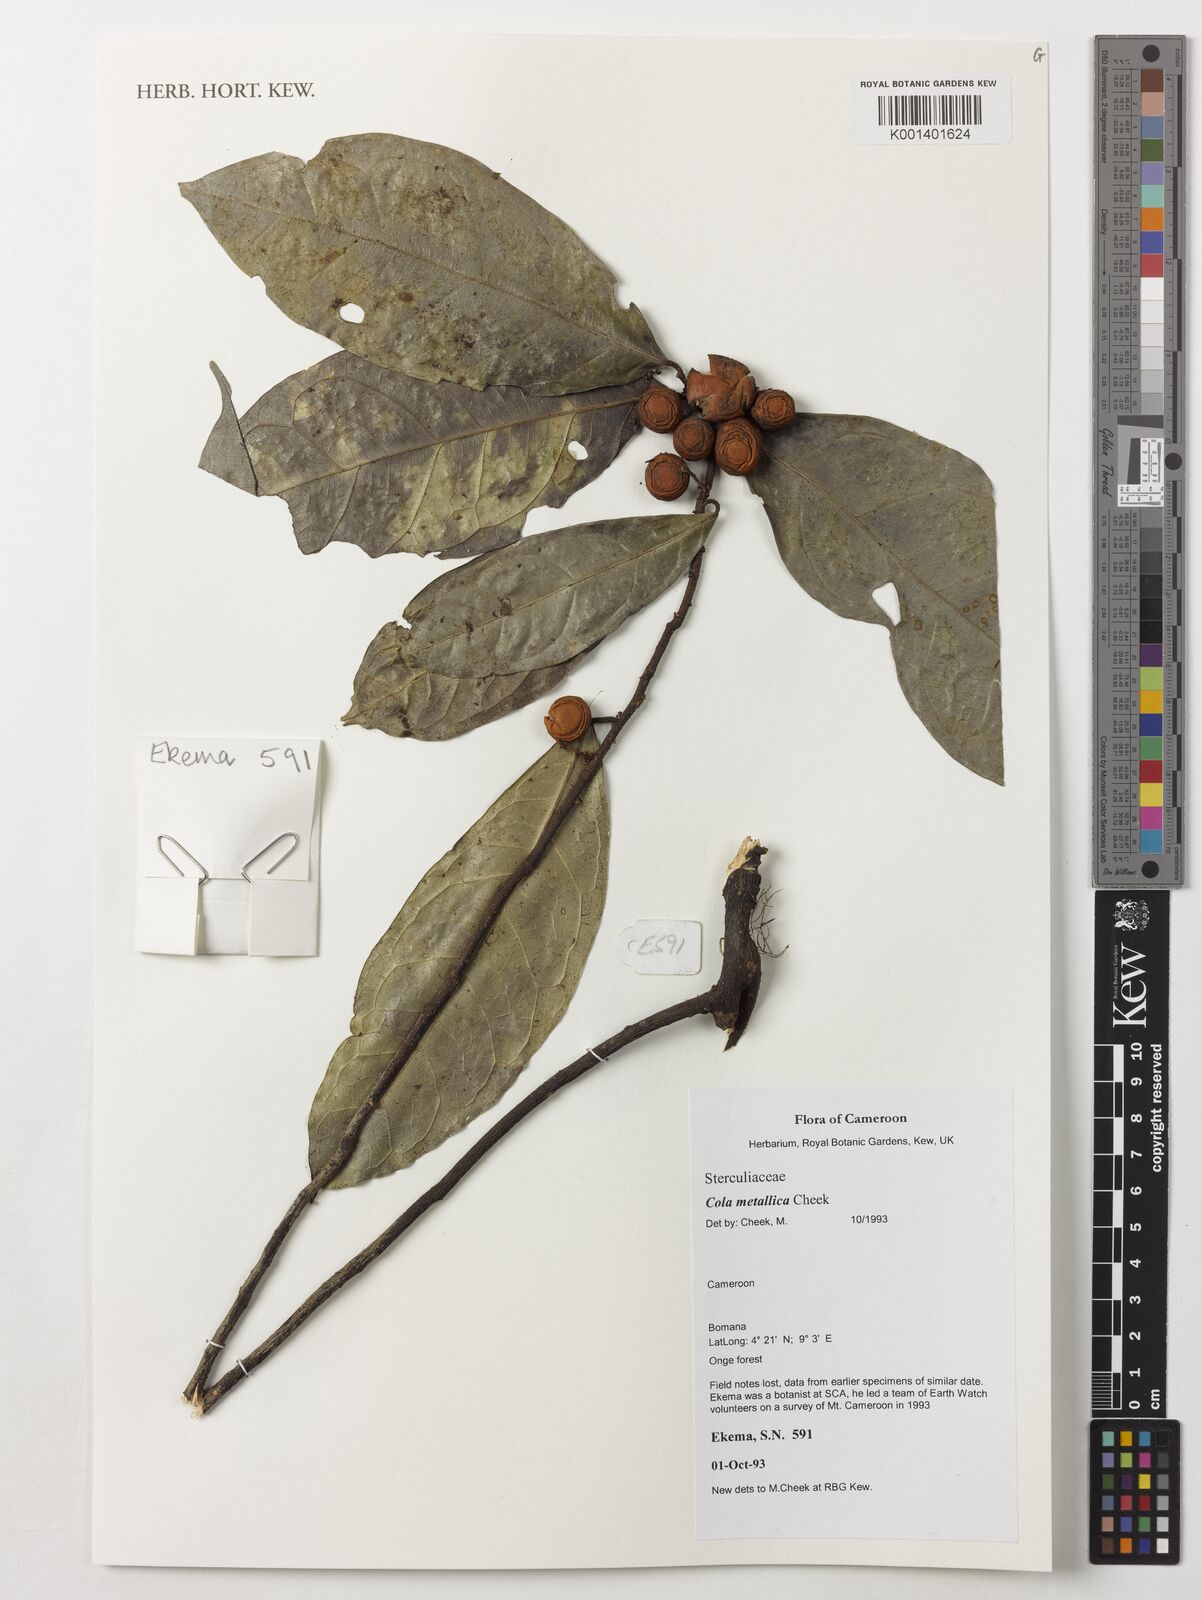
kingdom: Plantae
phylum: Tracheophyta
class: Magnoliopsida
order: Malvales
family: Malvaceae
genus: Cola
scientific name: Cola metallica
